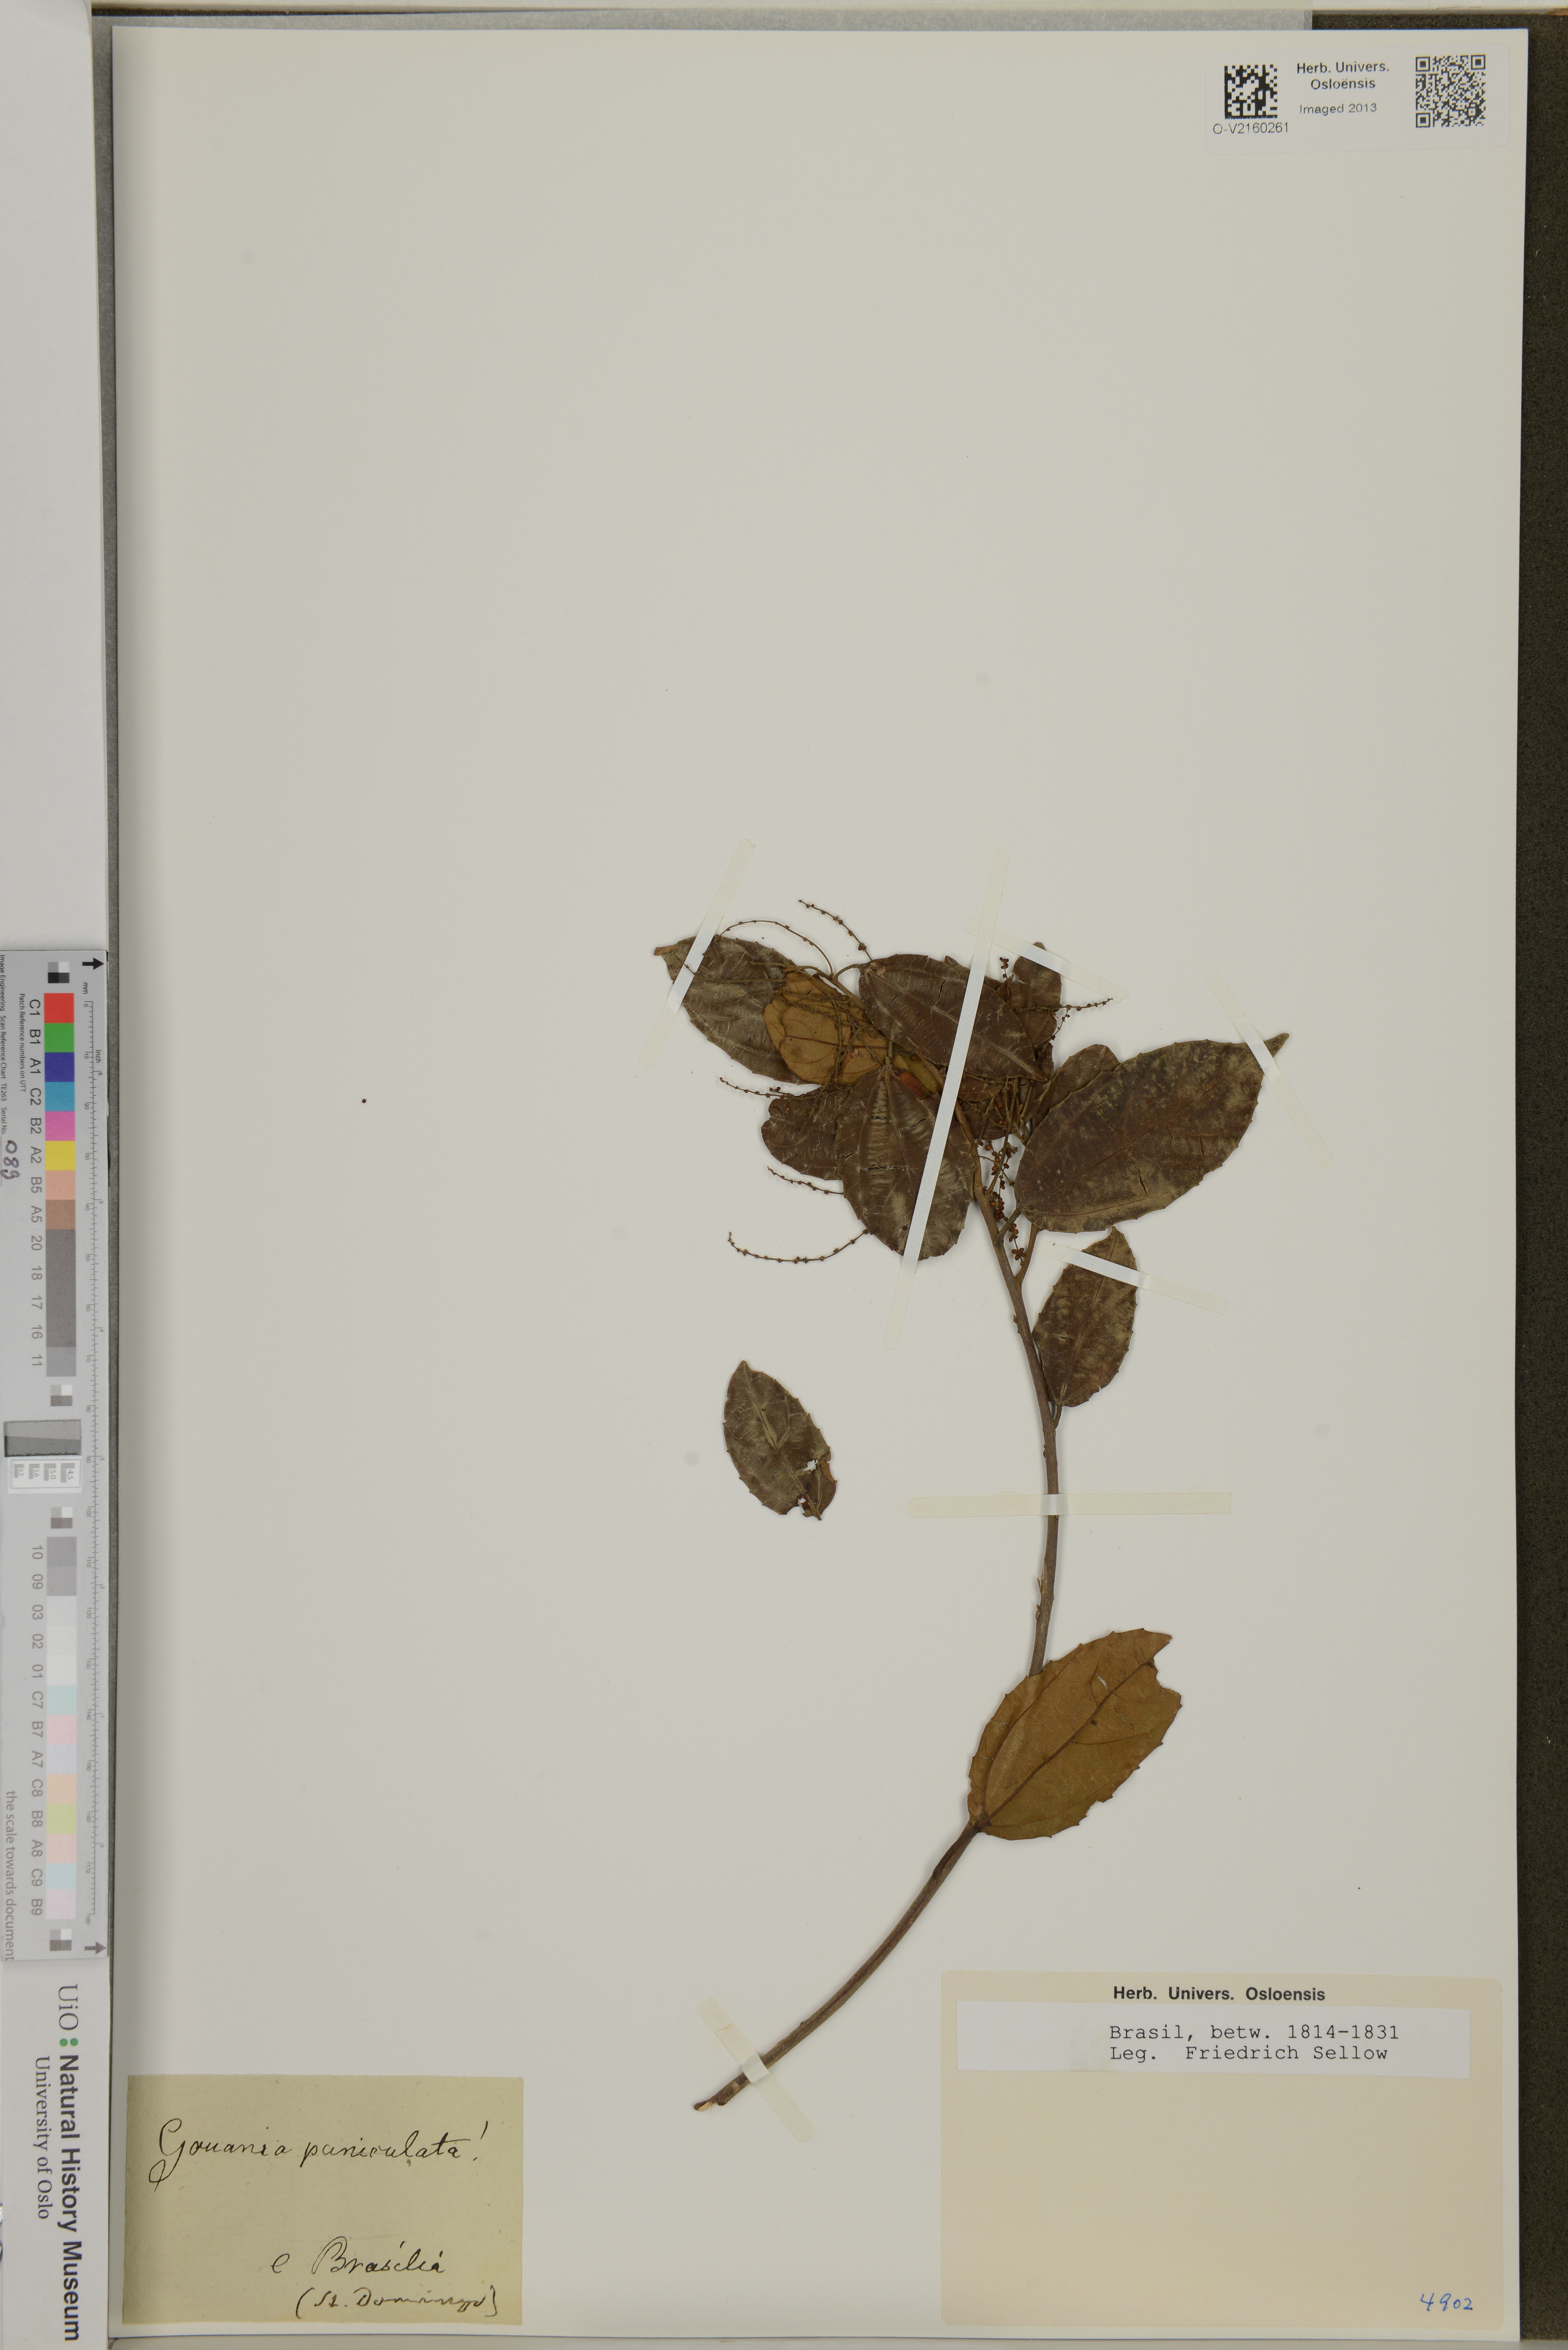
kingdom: Plantae
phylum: Tracheophyta
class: Magnoliopsida
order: Rosales
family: Rhamnaceae
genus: Gouania
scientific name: Gouania lupuloides
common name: Chewstick
